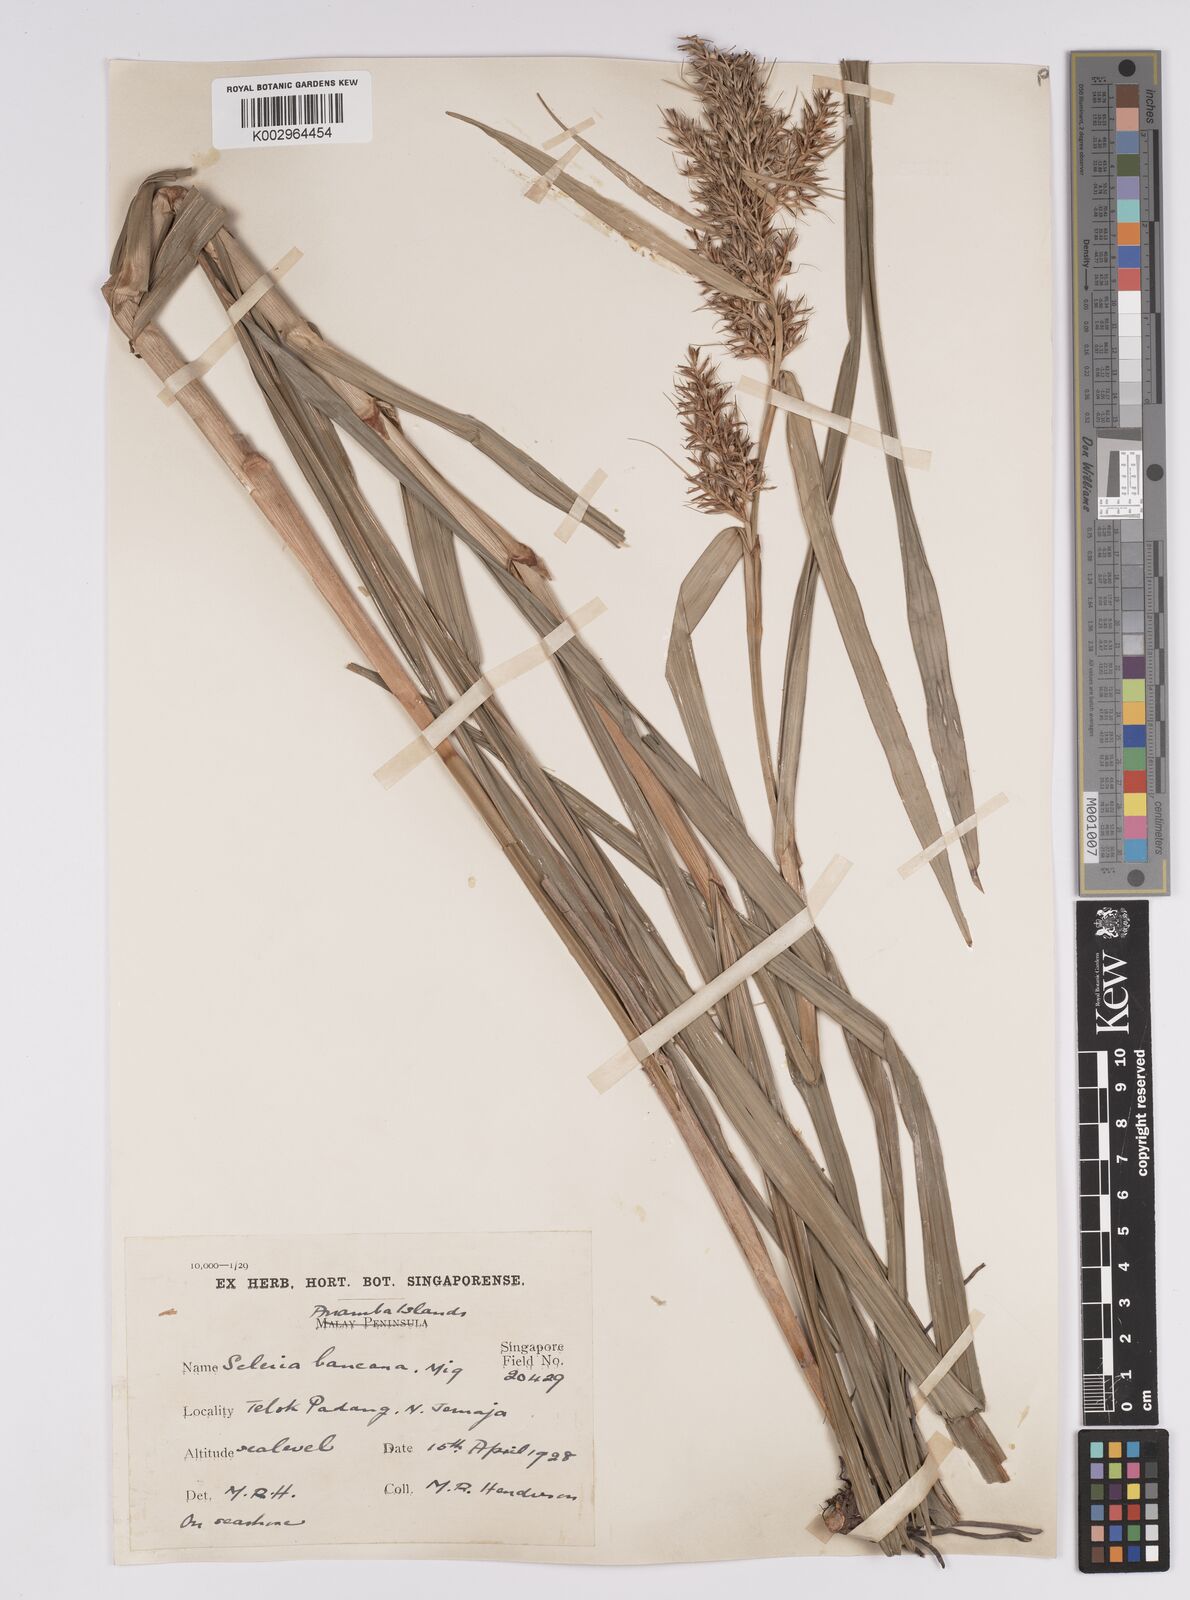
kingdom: Plantae
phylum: Tracheophyta
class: Liliopsida
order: Poales
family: Cyperaceae
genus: Scleria
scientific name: Scleria ciliaris
